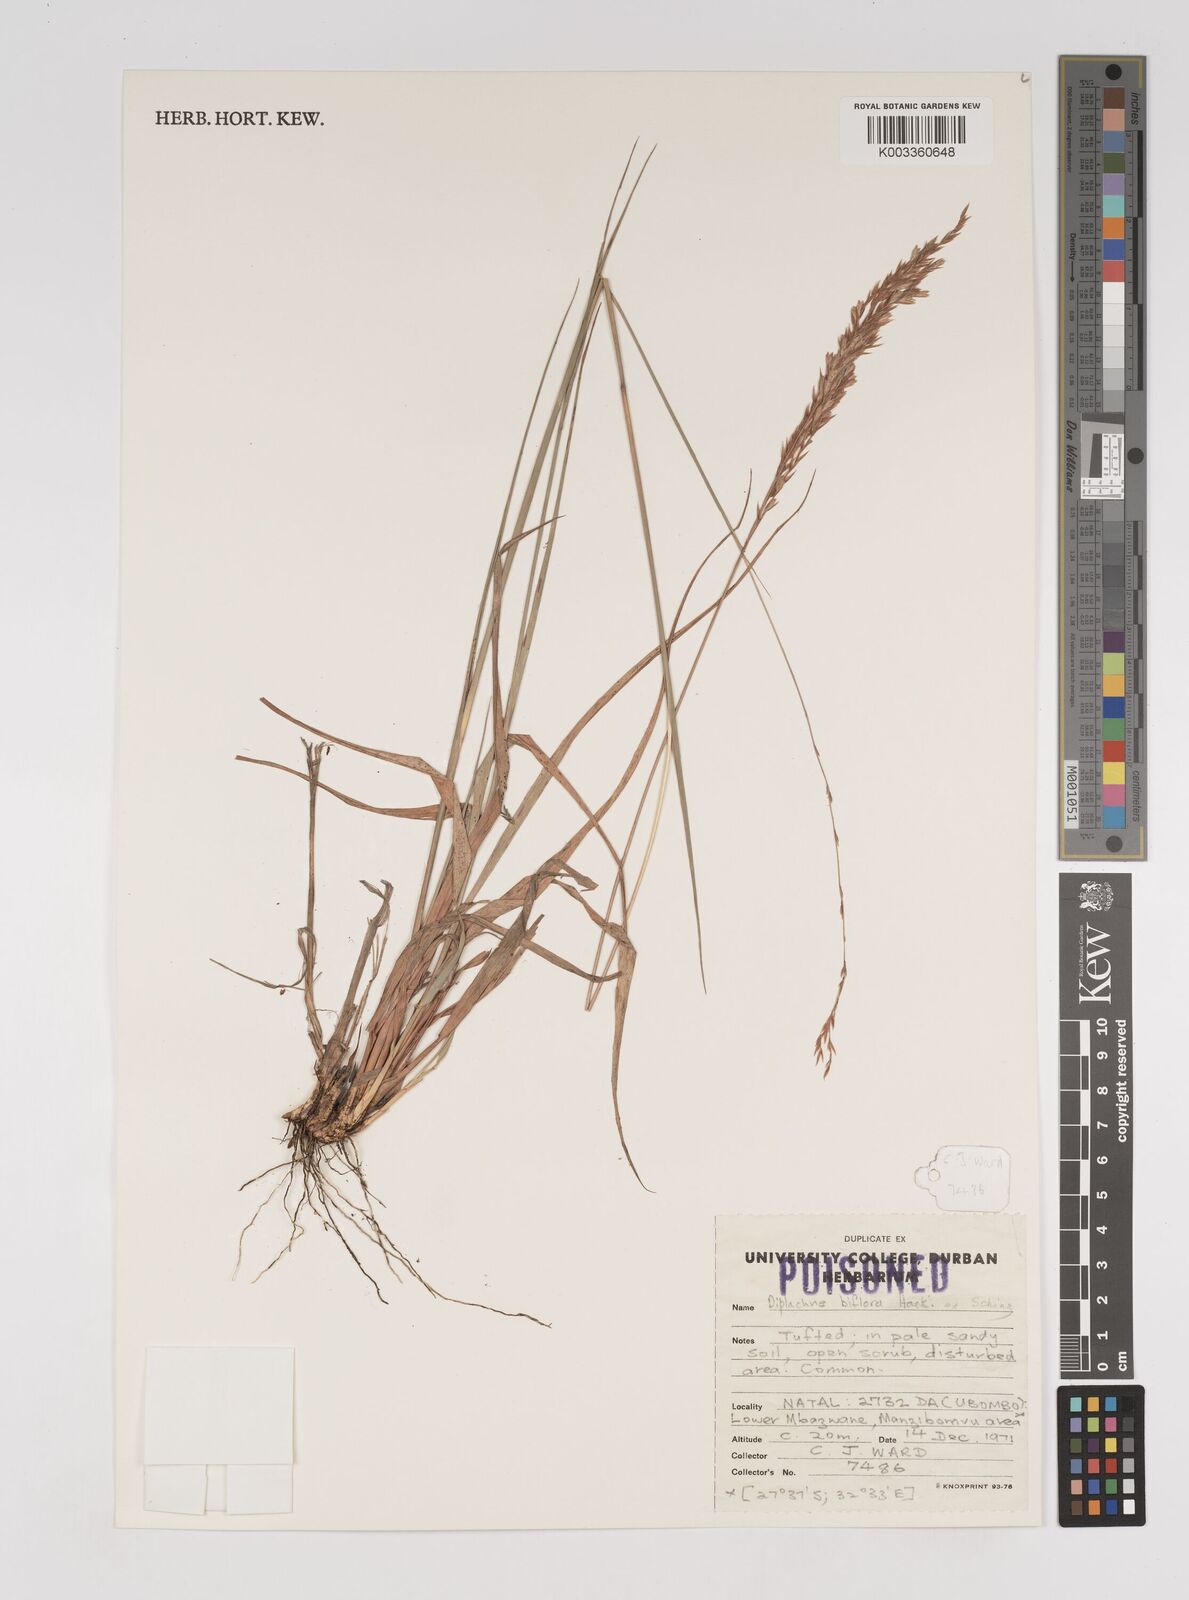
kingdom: Plantae
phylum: Tracheophyta
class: Liliopsida
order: Poales
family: Poaceae
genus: Bewsia
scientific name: Bewsia biflora
